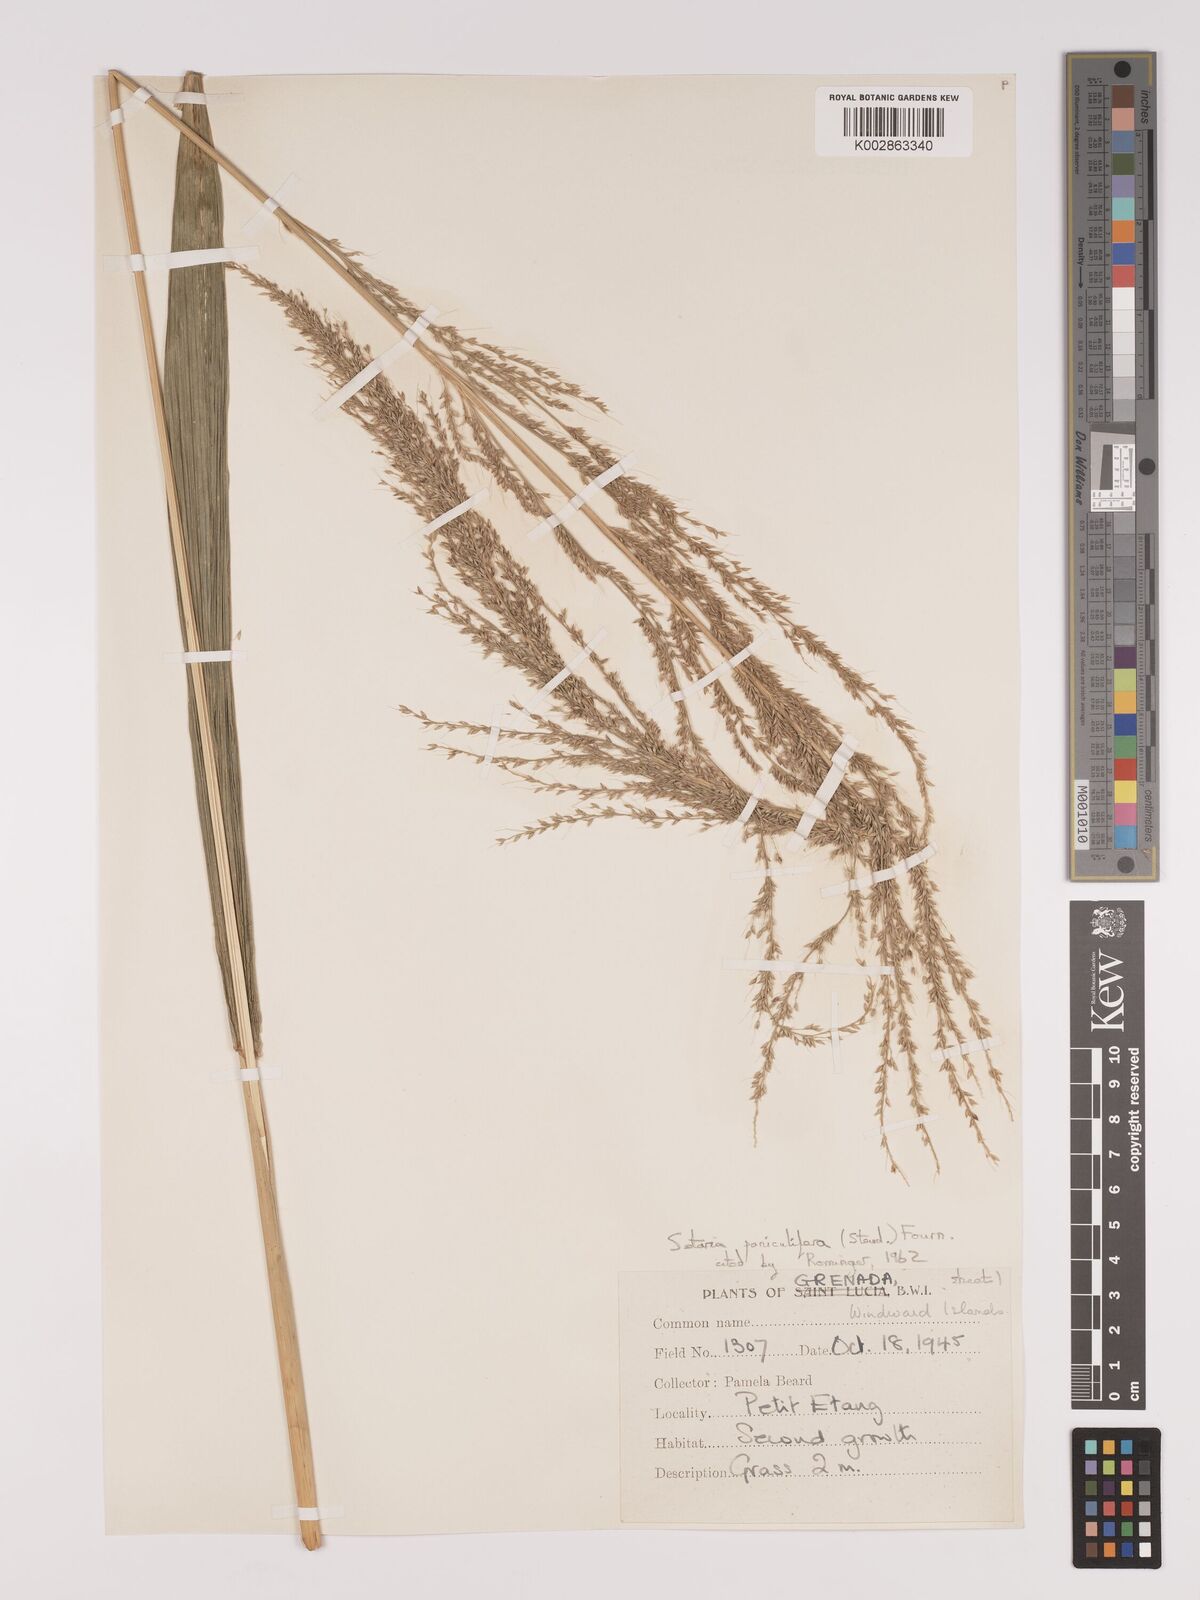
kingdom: Plantae
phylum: Tracheophyta
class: Liliopsida
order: Poales
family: Poaceae
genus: Setaria
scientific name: Setaria palmifolia
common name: Broadleaved bristlegrass
